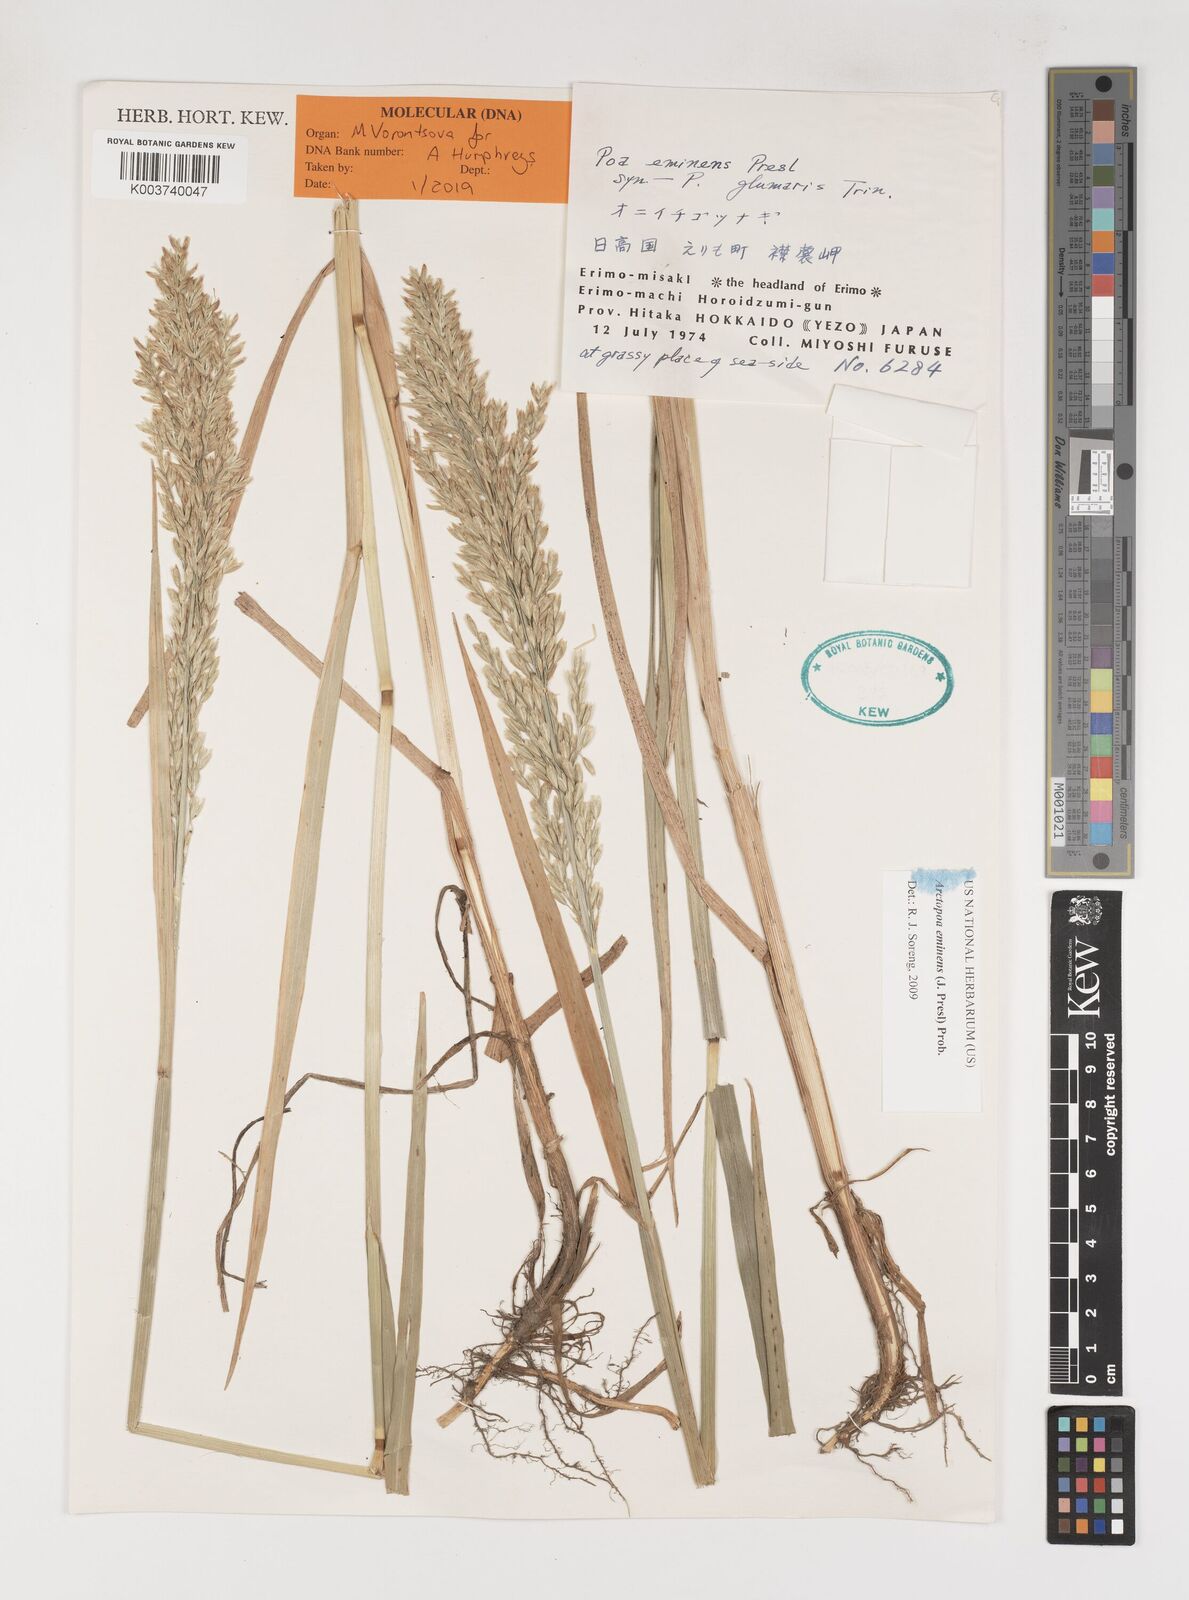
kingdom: Plantae
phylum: Tracheophyta
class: Liliopsida
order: Poales
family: Poaceae
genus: Arctopoa
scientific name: Arctopoa eminens
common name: Eminent bluegrass
